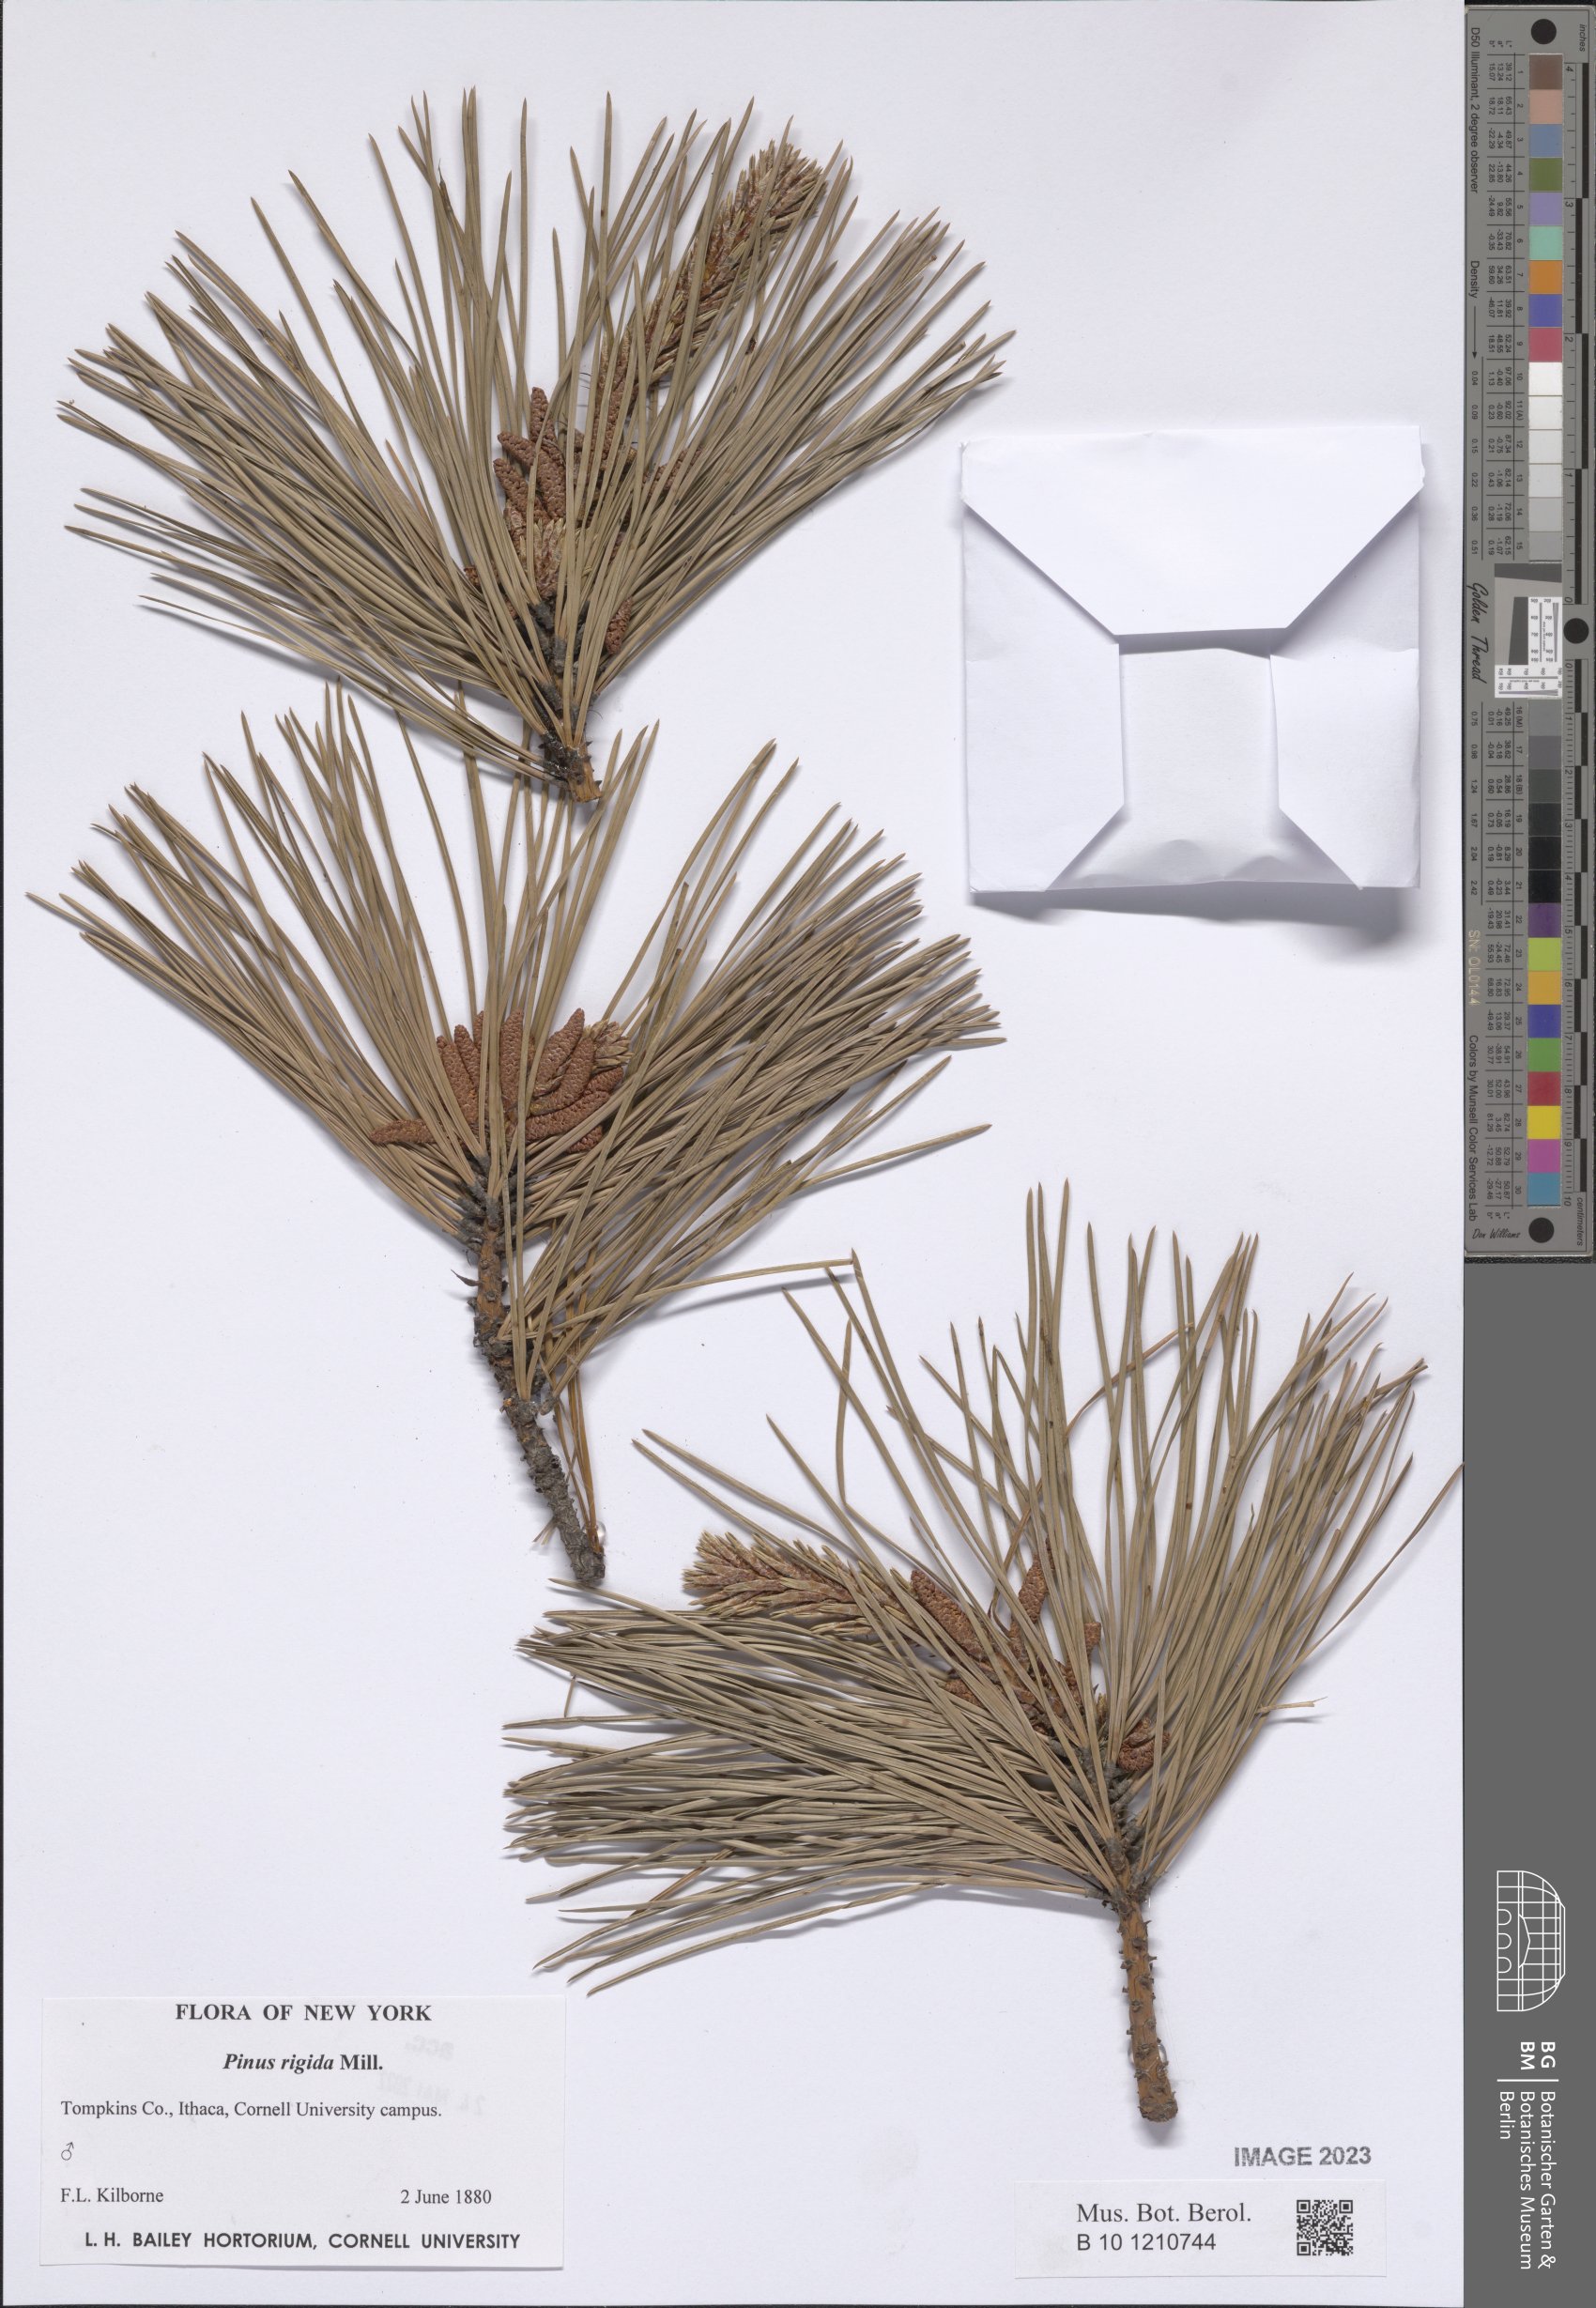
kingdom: Plantae
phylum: Tracheophyta
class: Pinopsida
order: Pinales
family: Pinaceae
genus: Pinus
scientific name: Pinus rigida
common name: Pitch pine
